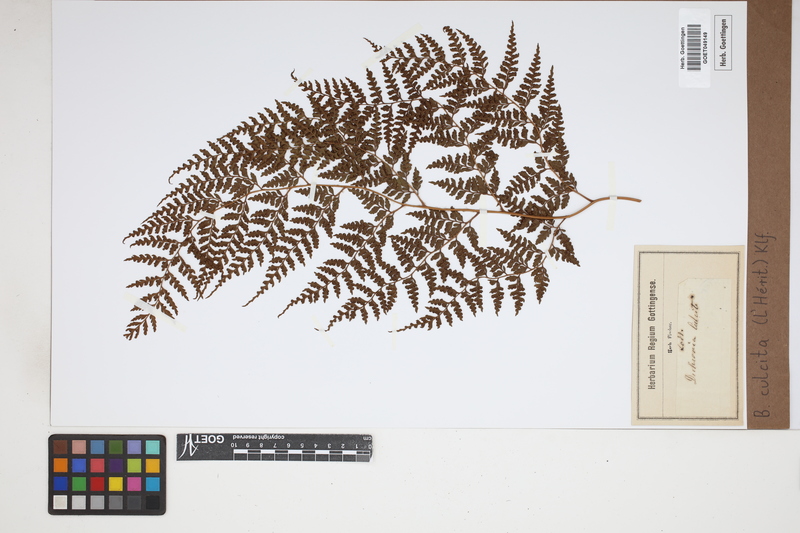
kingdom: Plantae
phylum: Tracheophyta
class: Polypodiopsida
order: Cyatheales
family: Culcitaceae
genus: Culcita
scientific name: Culcita macrocarpa
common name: Woolly tree fern
